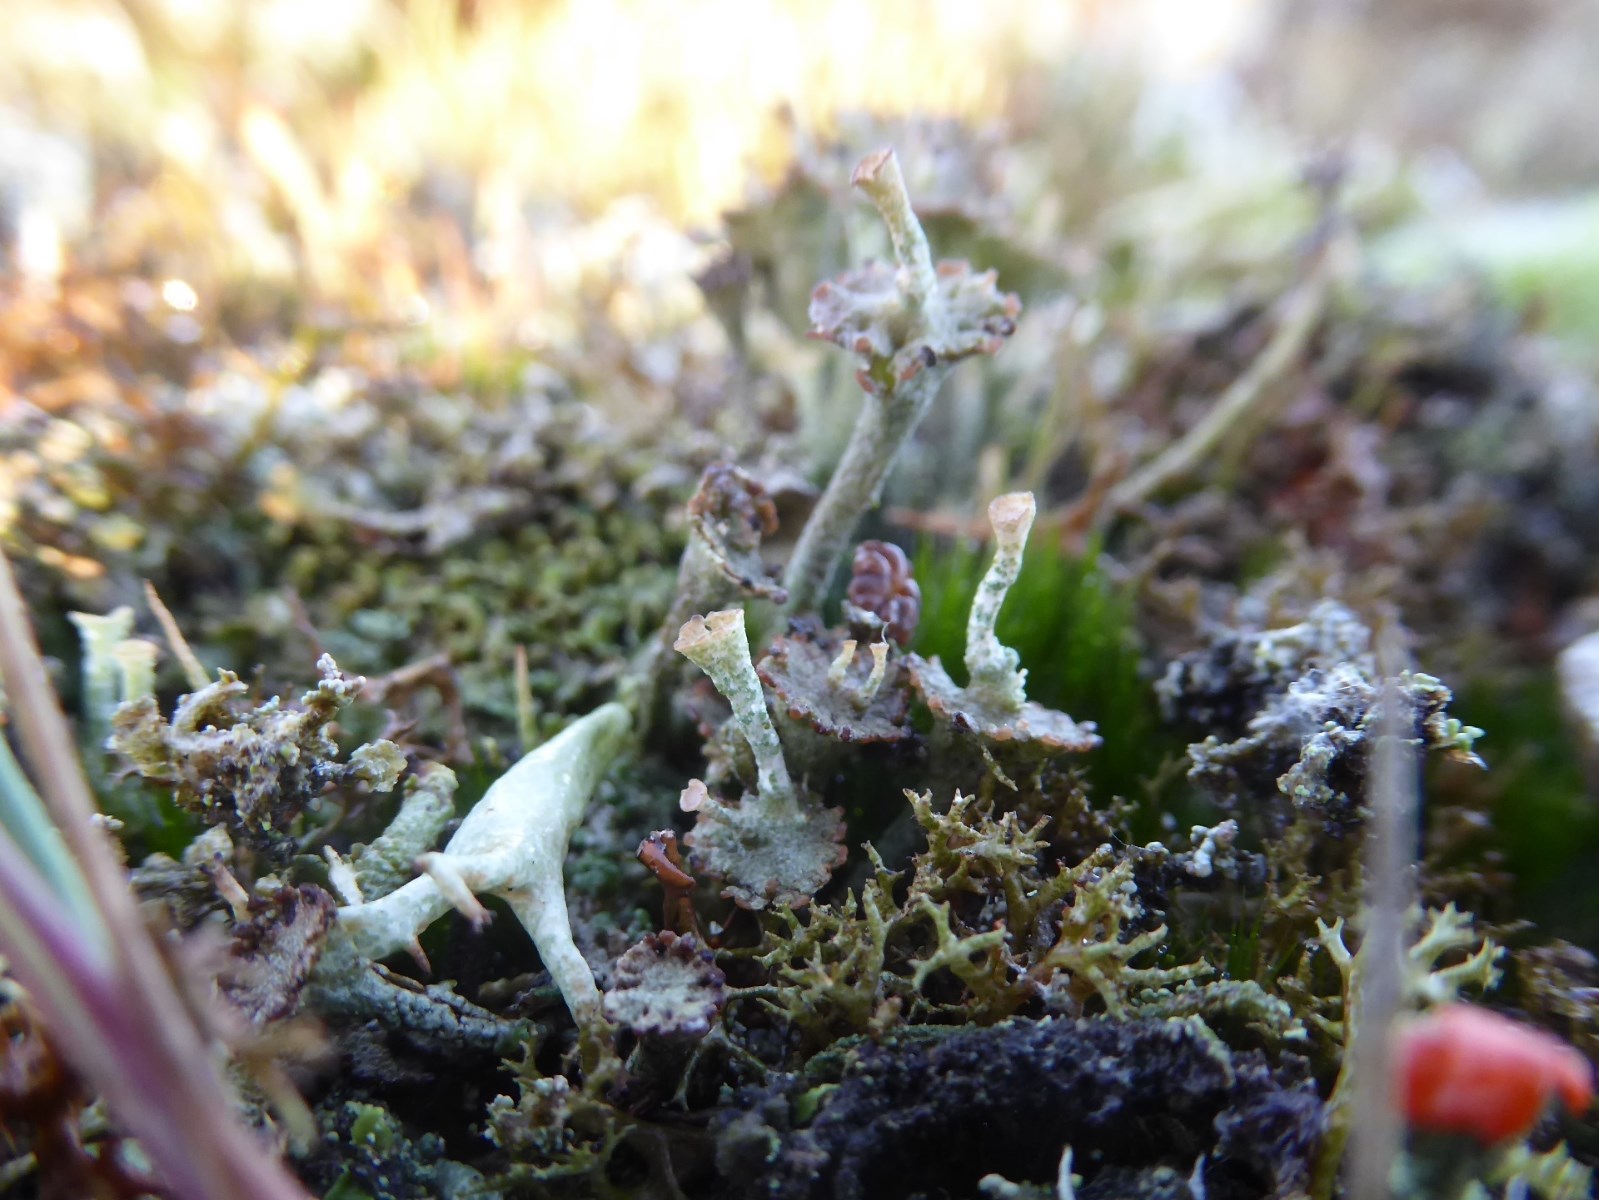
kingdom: Fungi
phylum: Ascomycota
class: Lecanoromycetes
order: Lecanorales
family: Cladoniaceae
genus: Cladonia
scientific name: Cladonia cervicornis
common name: gevir-bægerlav
